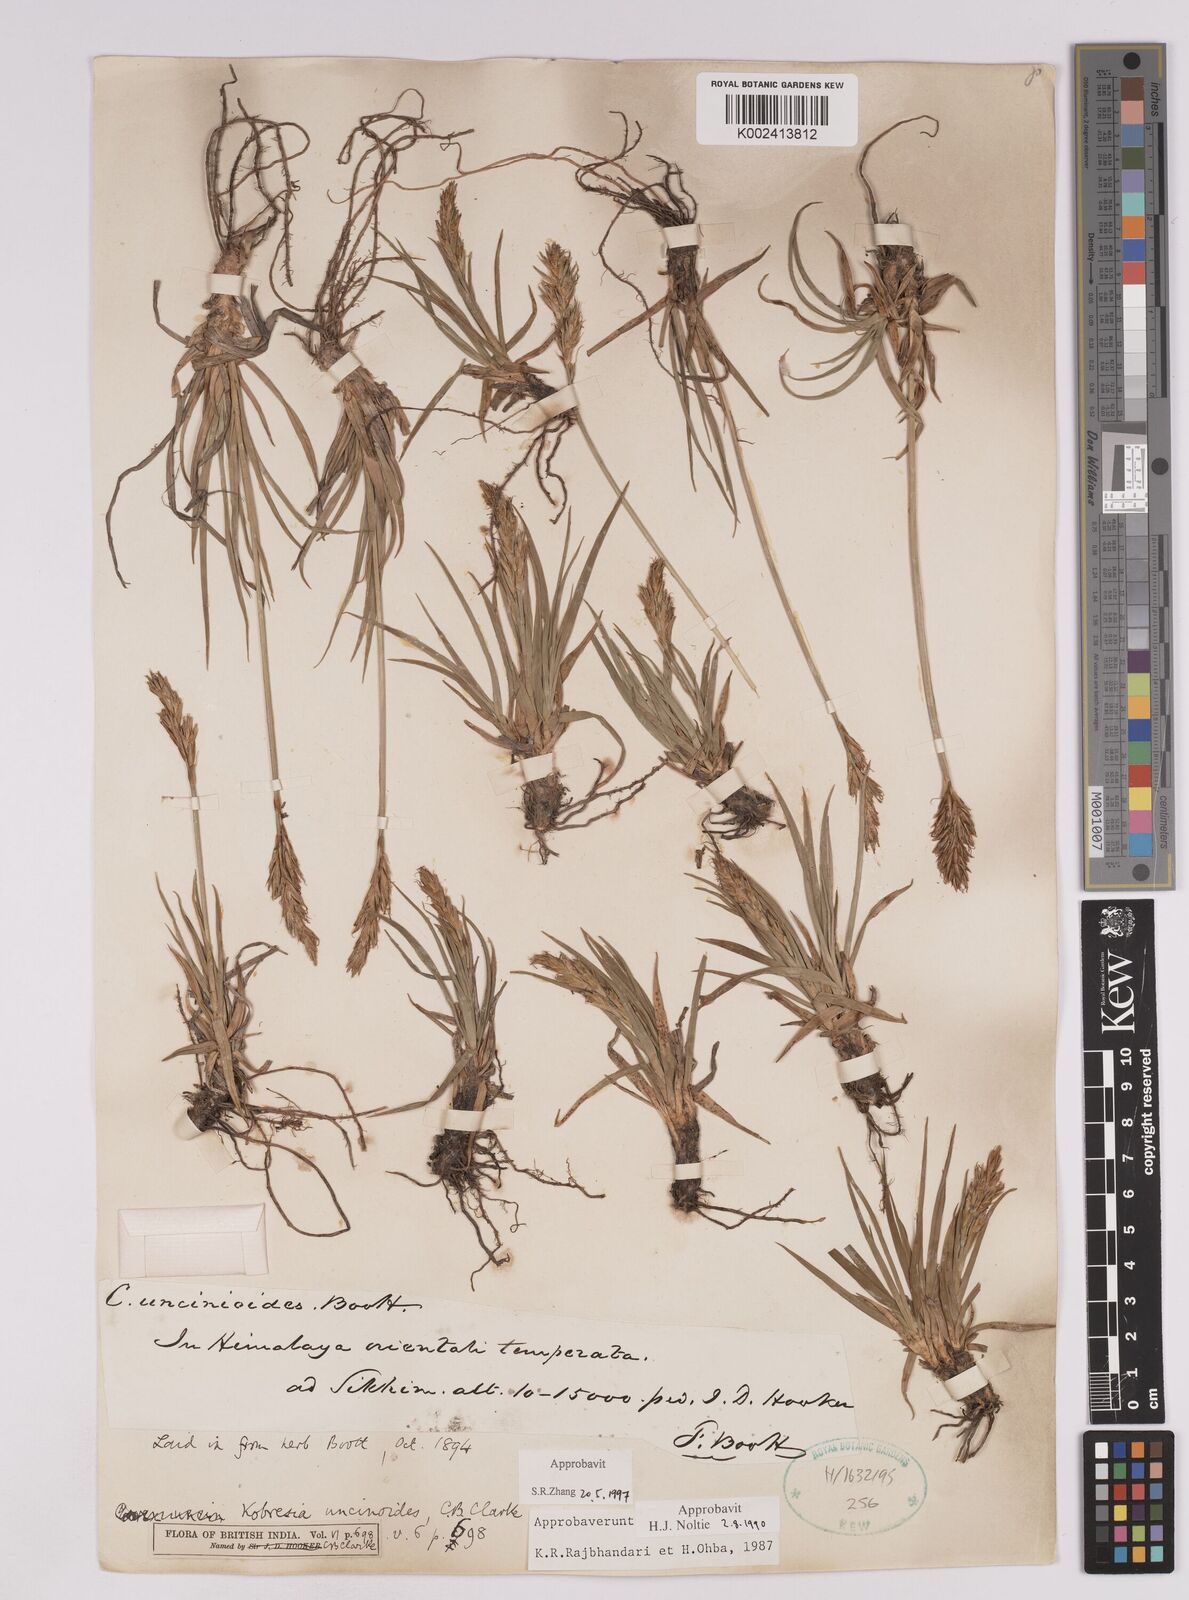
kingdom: Plantae
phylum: Tracheophyta
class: Liliopsida
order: Poales
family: Cyperaceae
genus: Carex
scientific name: Carex uncinioides
